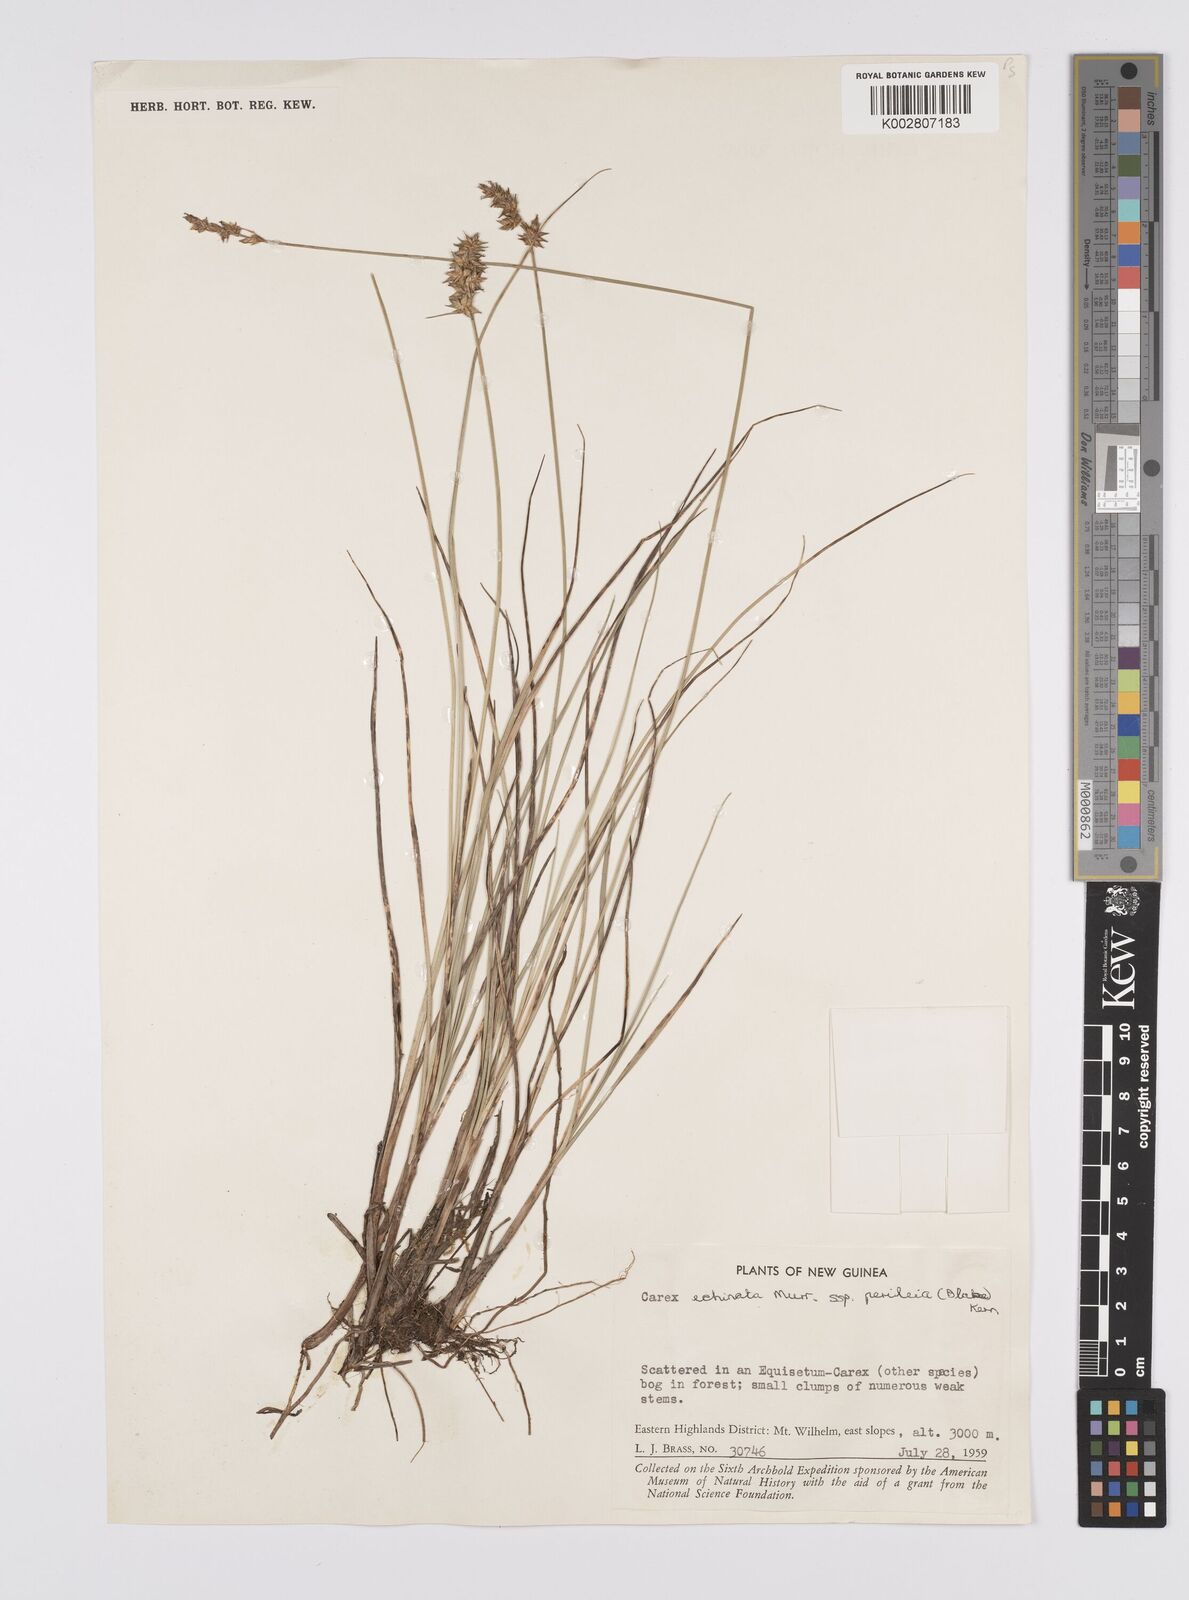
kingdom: Plantae
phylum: Tracheophyta
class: Liliopsida
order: Poales
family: Cyperaceae
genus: Carex
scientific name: Carex echinata
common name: Star sedge
